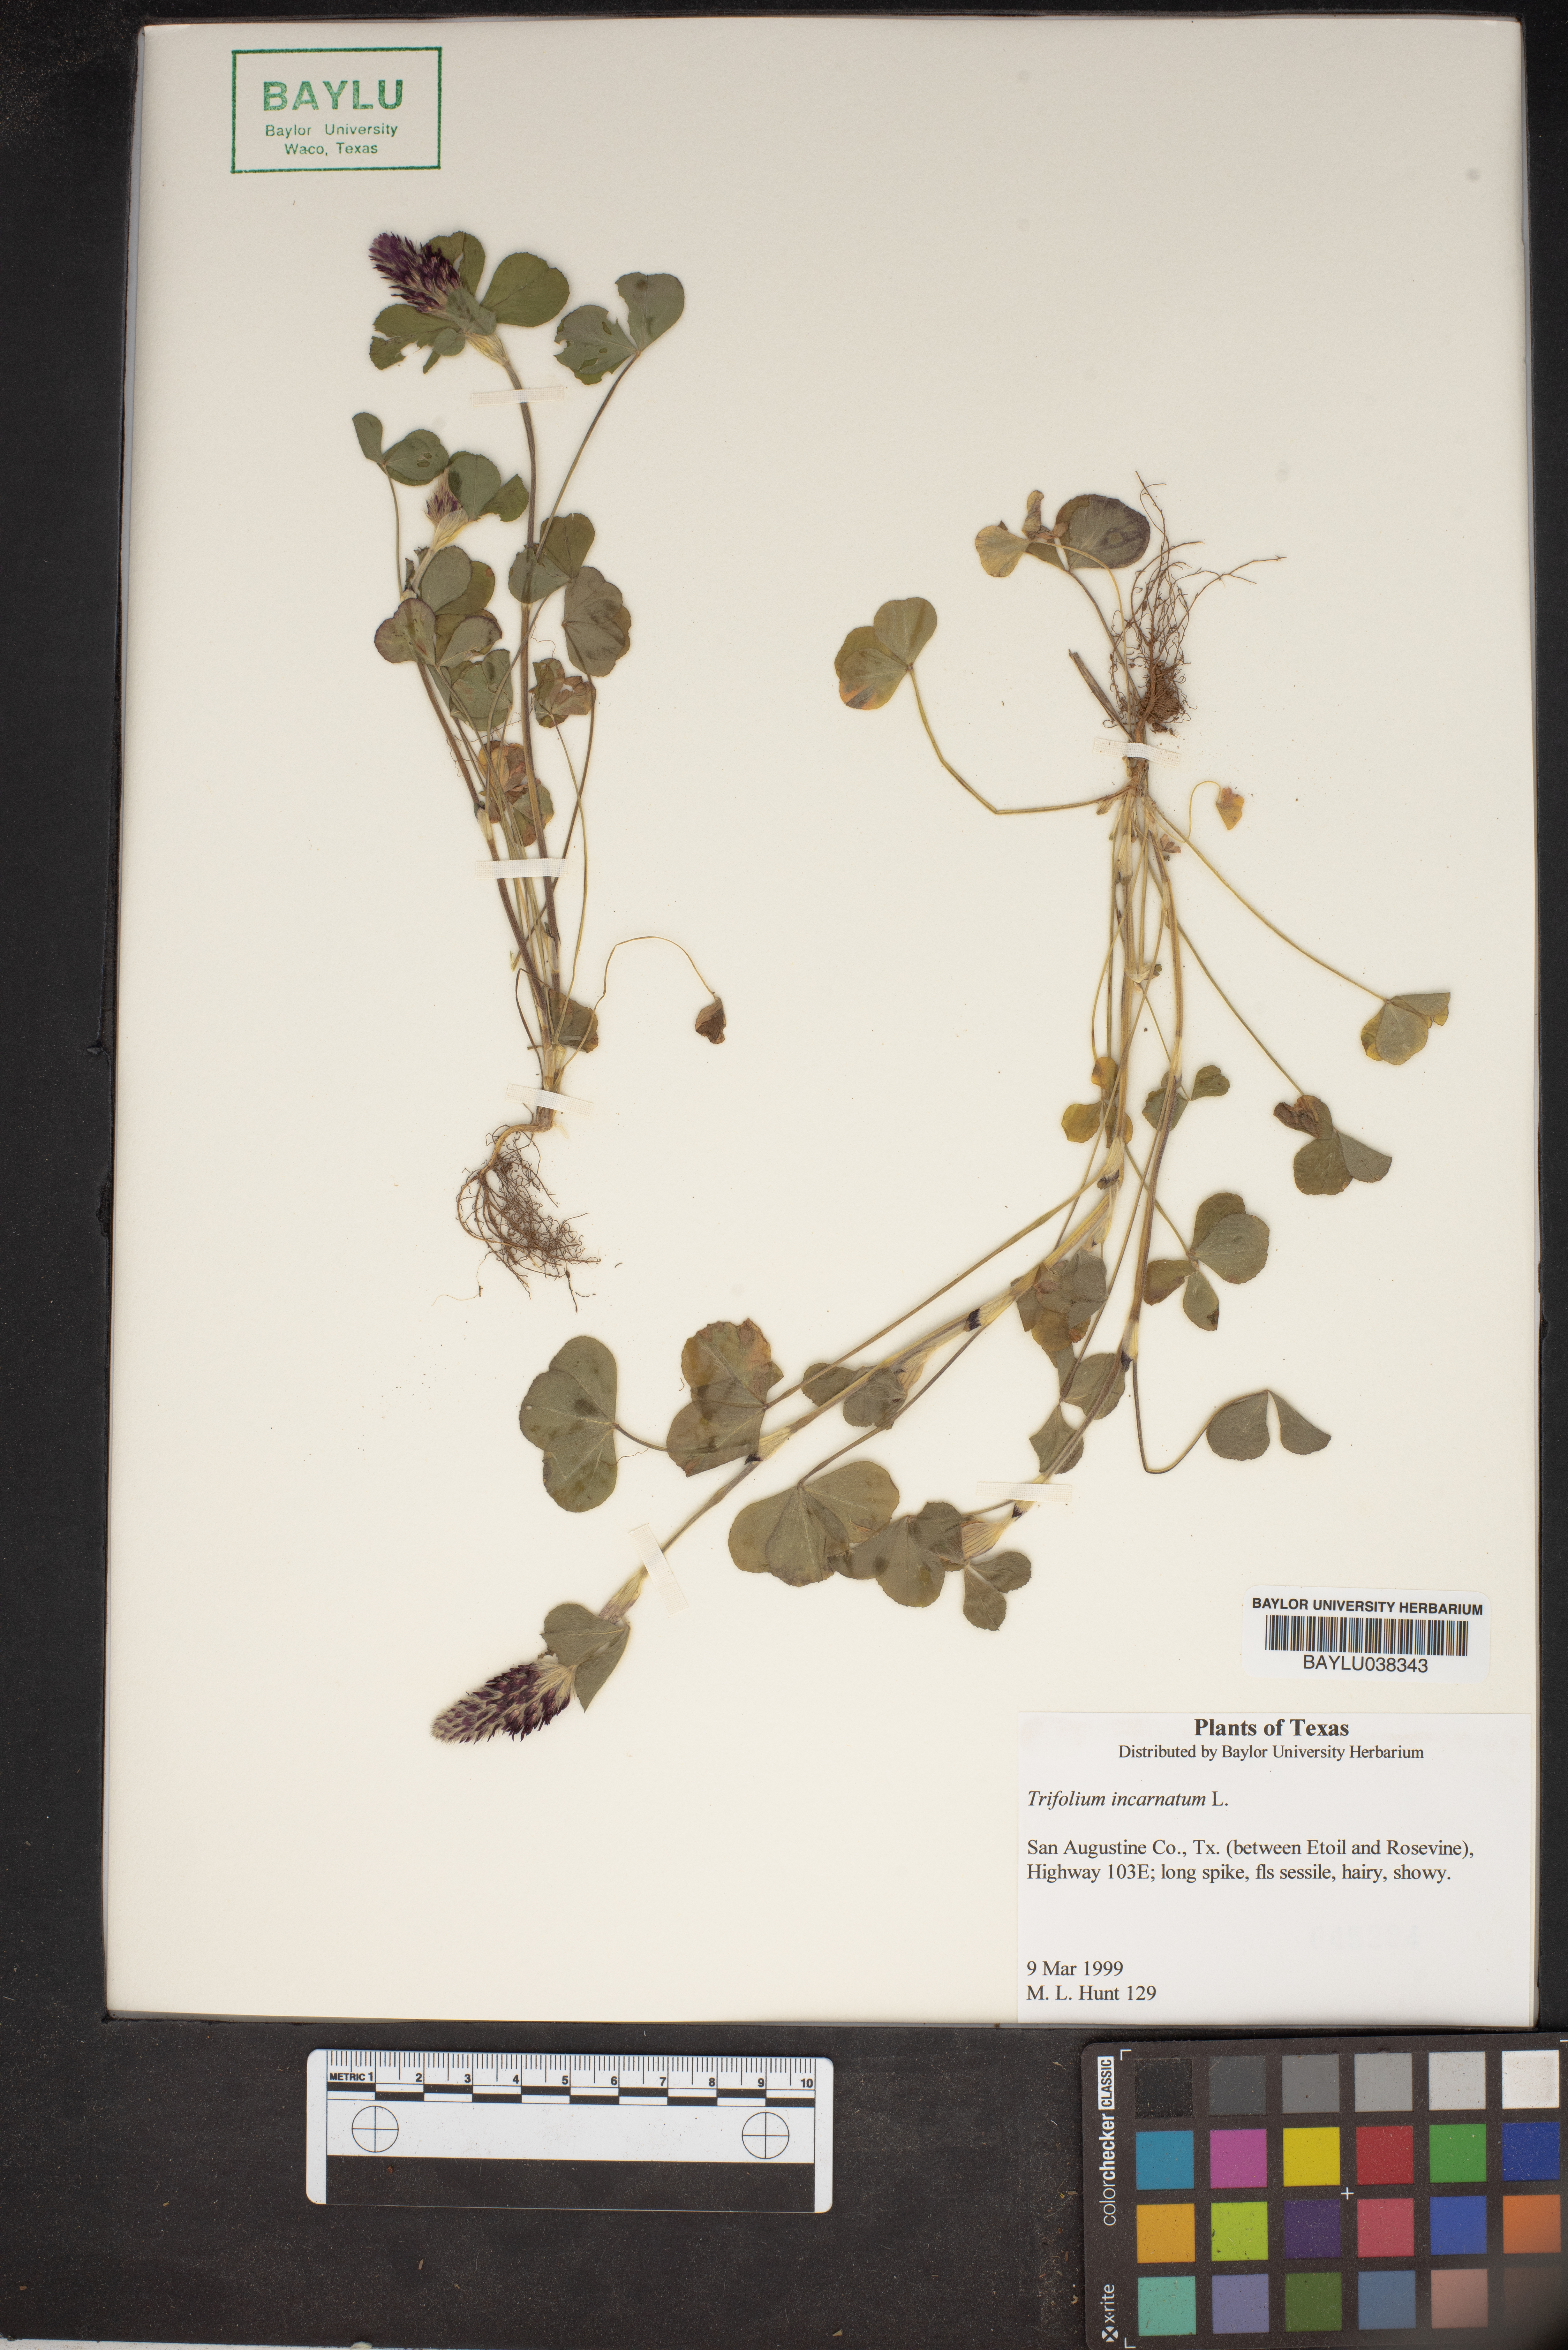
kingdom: Plantae
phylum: Tracheophyta
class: Magnoliopsida
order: Fabales
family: Fabaceae
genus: Trifolium
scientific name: Trifolium incarnatum
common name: Crimson clover
